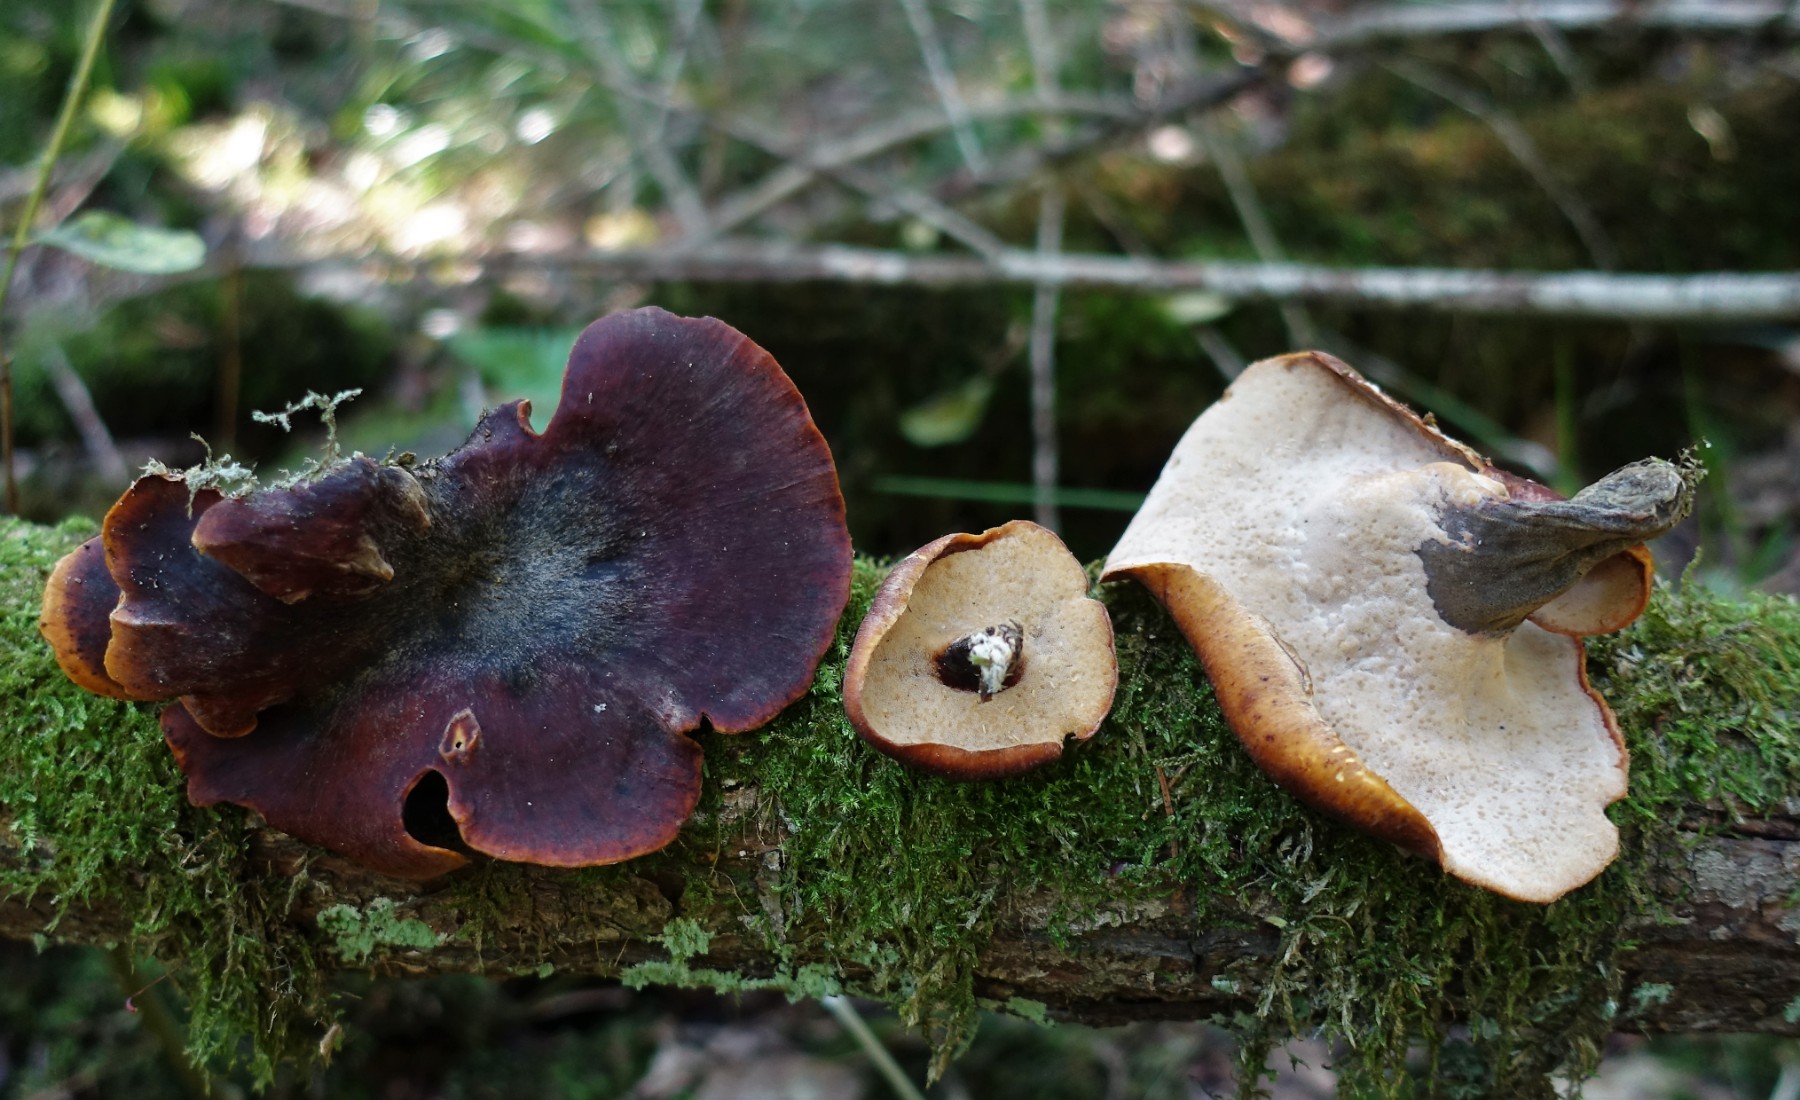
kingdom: Fungi
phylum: Basidiomycota
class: Agaricomycetes
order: Polyporales
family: Polyporaceae
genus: Picipes
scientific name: Picipes tubaeformis
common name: trompet-stilkporesvamp
